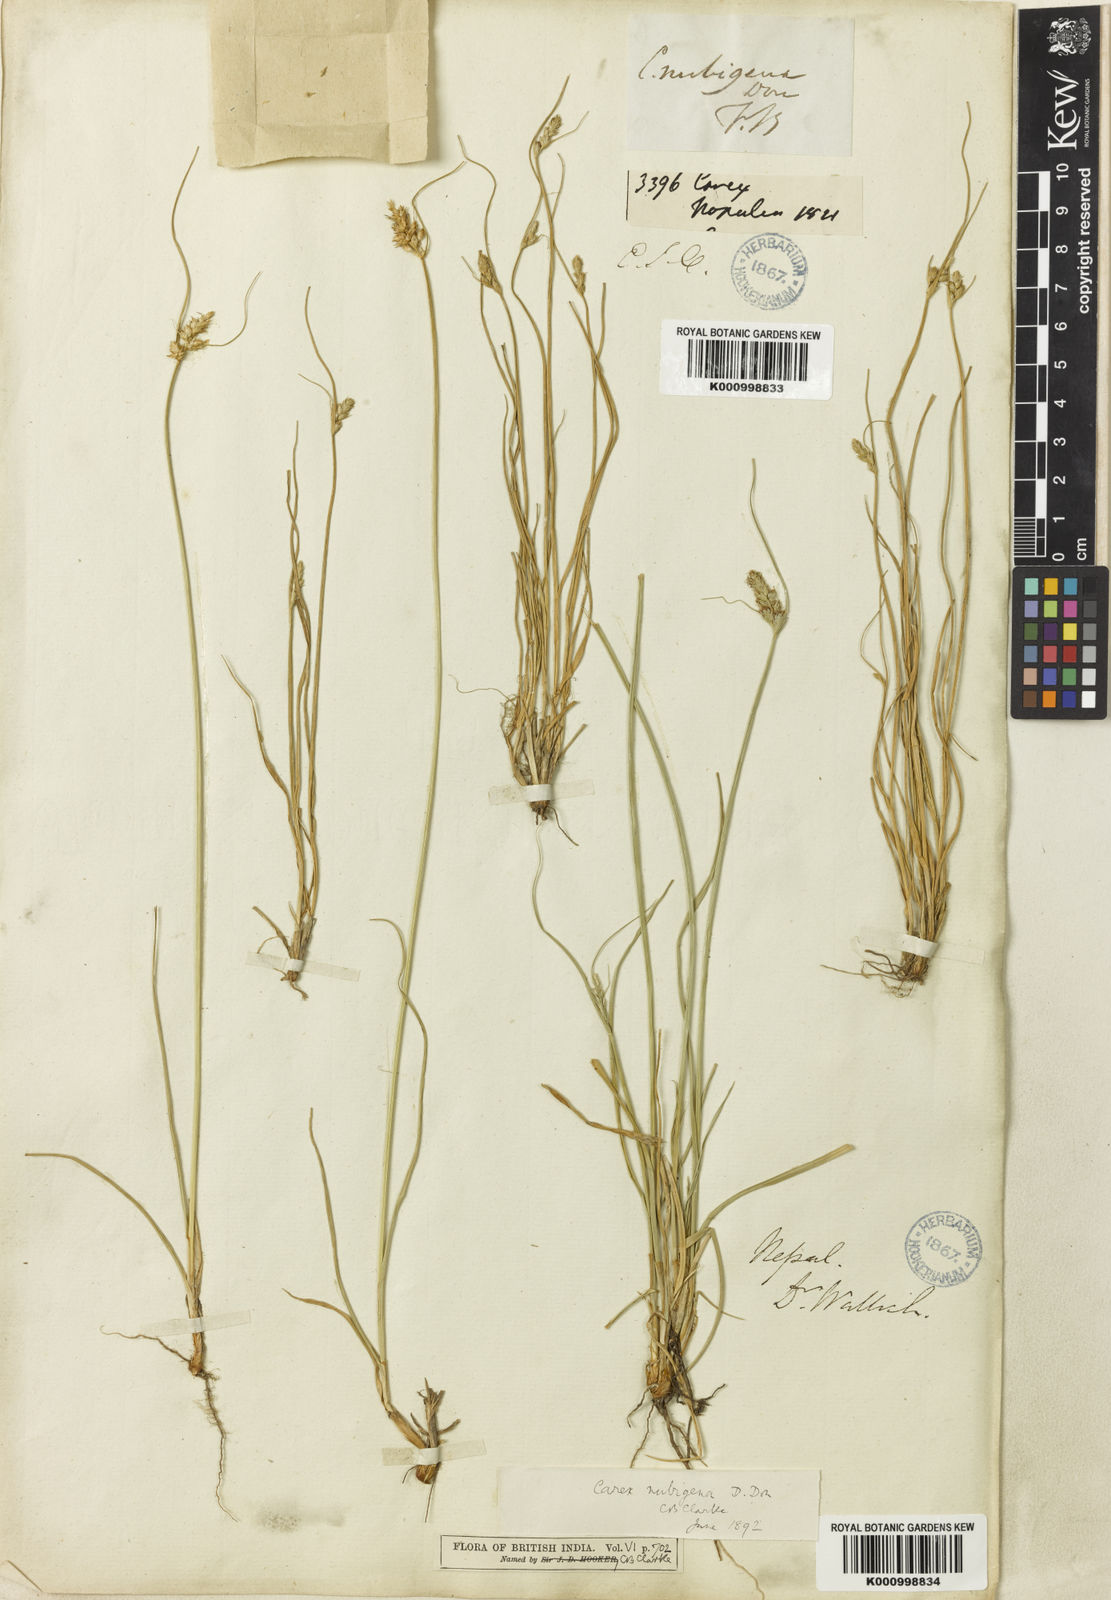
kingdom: Plantae
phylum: Tracheophyta
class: Liliopsida
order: Poales
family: Cyperaceae
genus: Carex
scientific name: Carex nubigena
